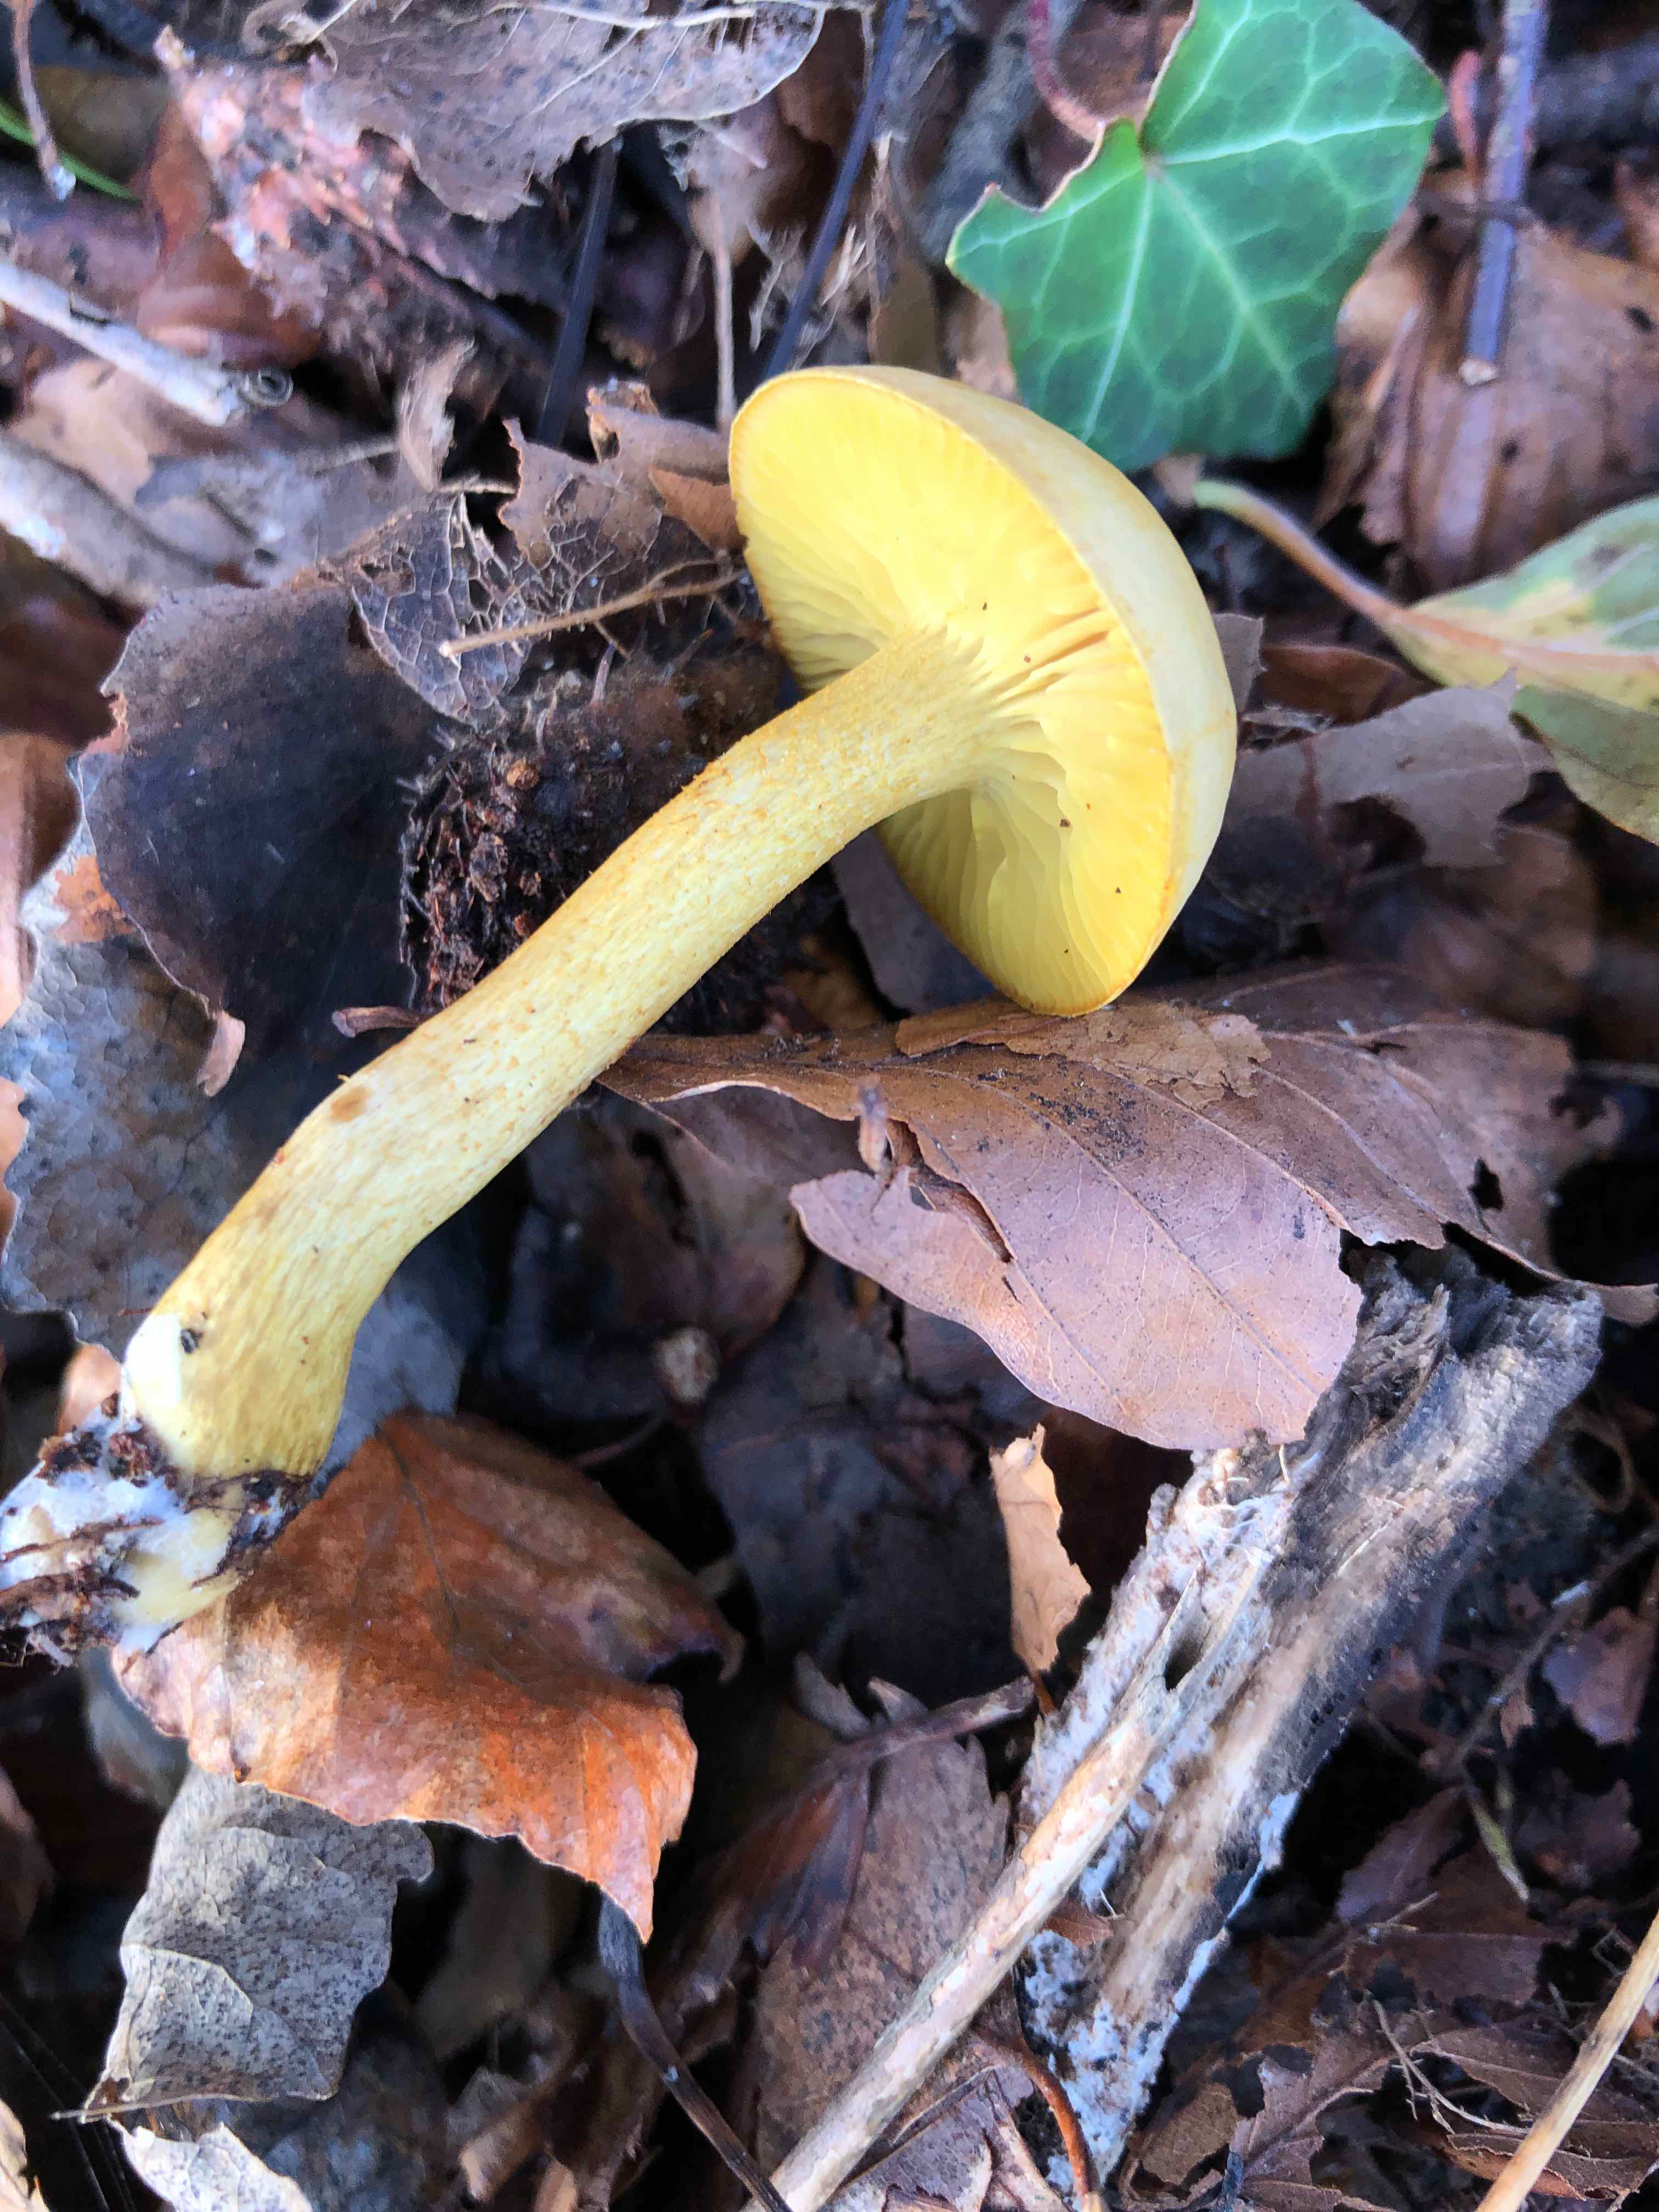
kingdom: Fungi
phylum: Basidiomycota
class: Agaricomycetes
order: Agaricales
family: Tricholomataceae
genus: Tricholoma
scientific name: Tricholoma sulphureum
